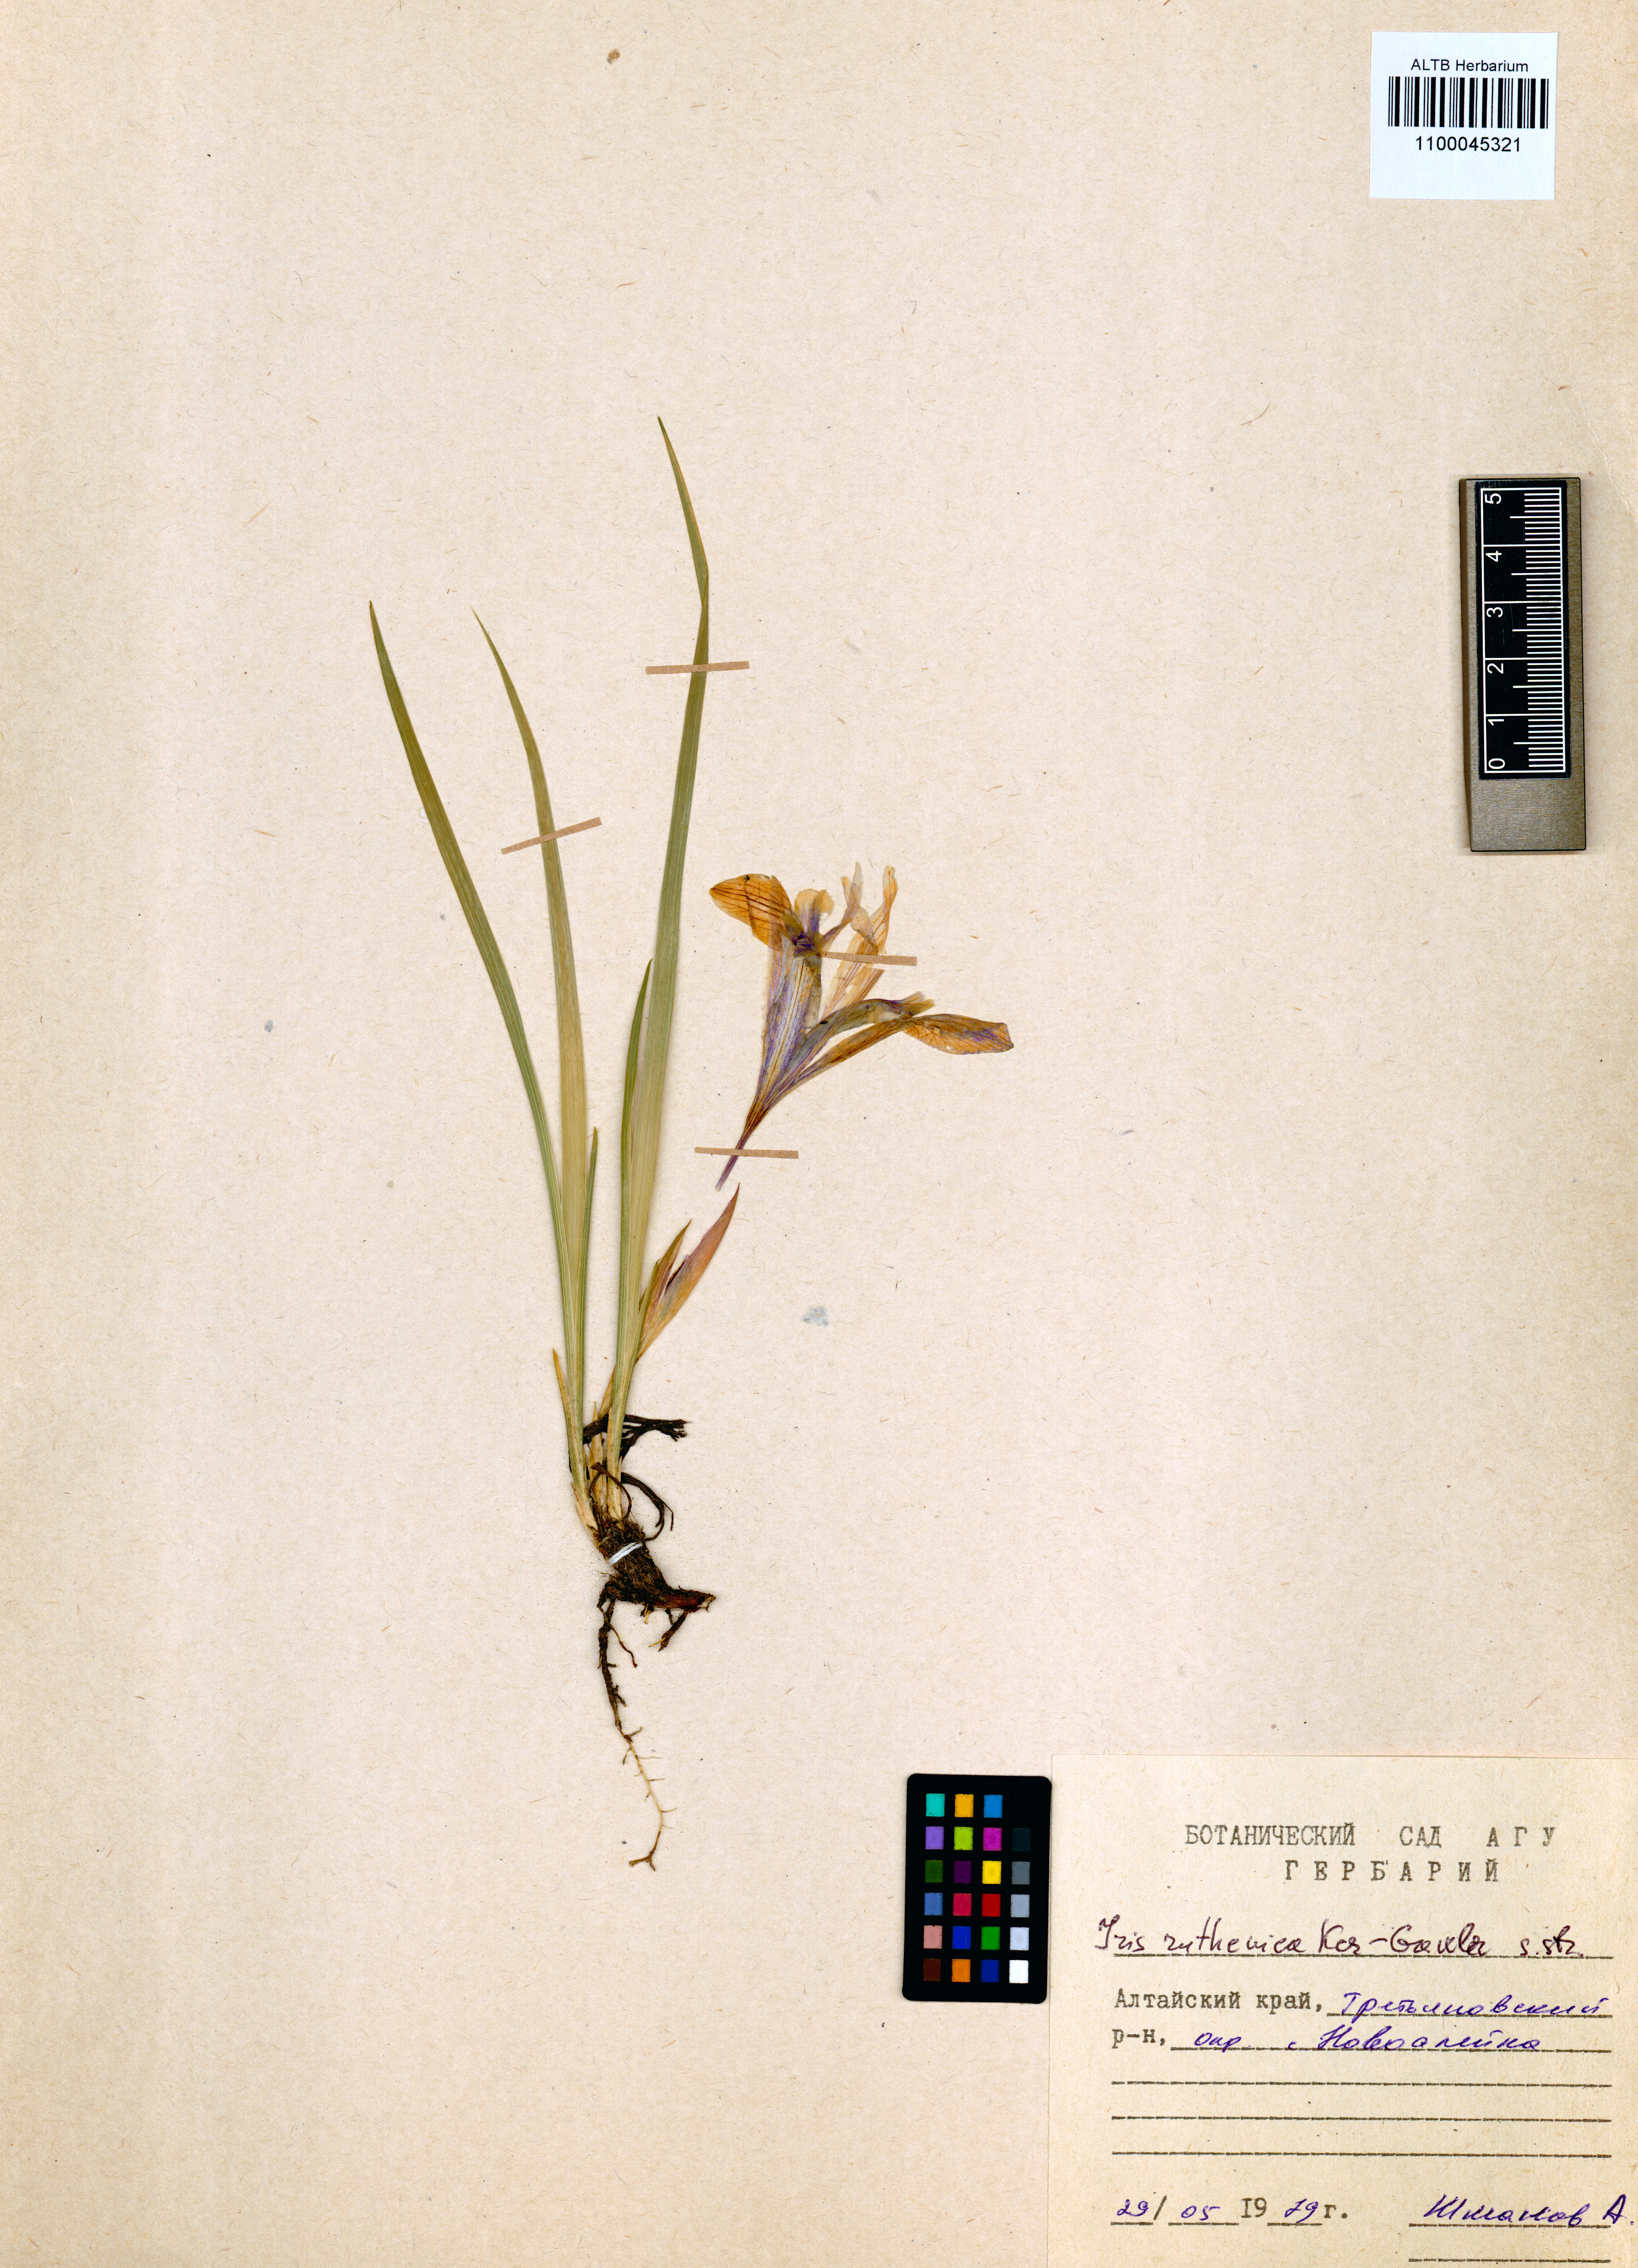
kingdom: Plantae
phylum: Tracheophyta
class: Liliopsida
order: Asparagales
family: Iridaceae
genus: Iris
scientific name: Iris ruthenica
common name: Purple-bract iris
